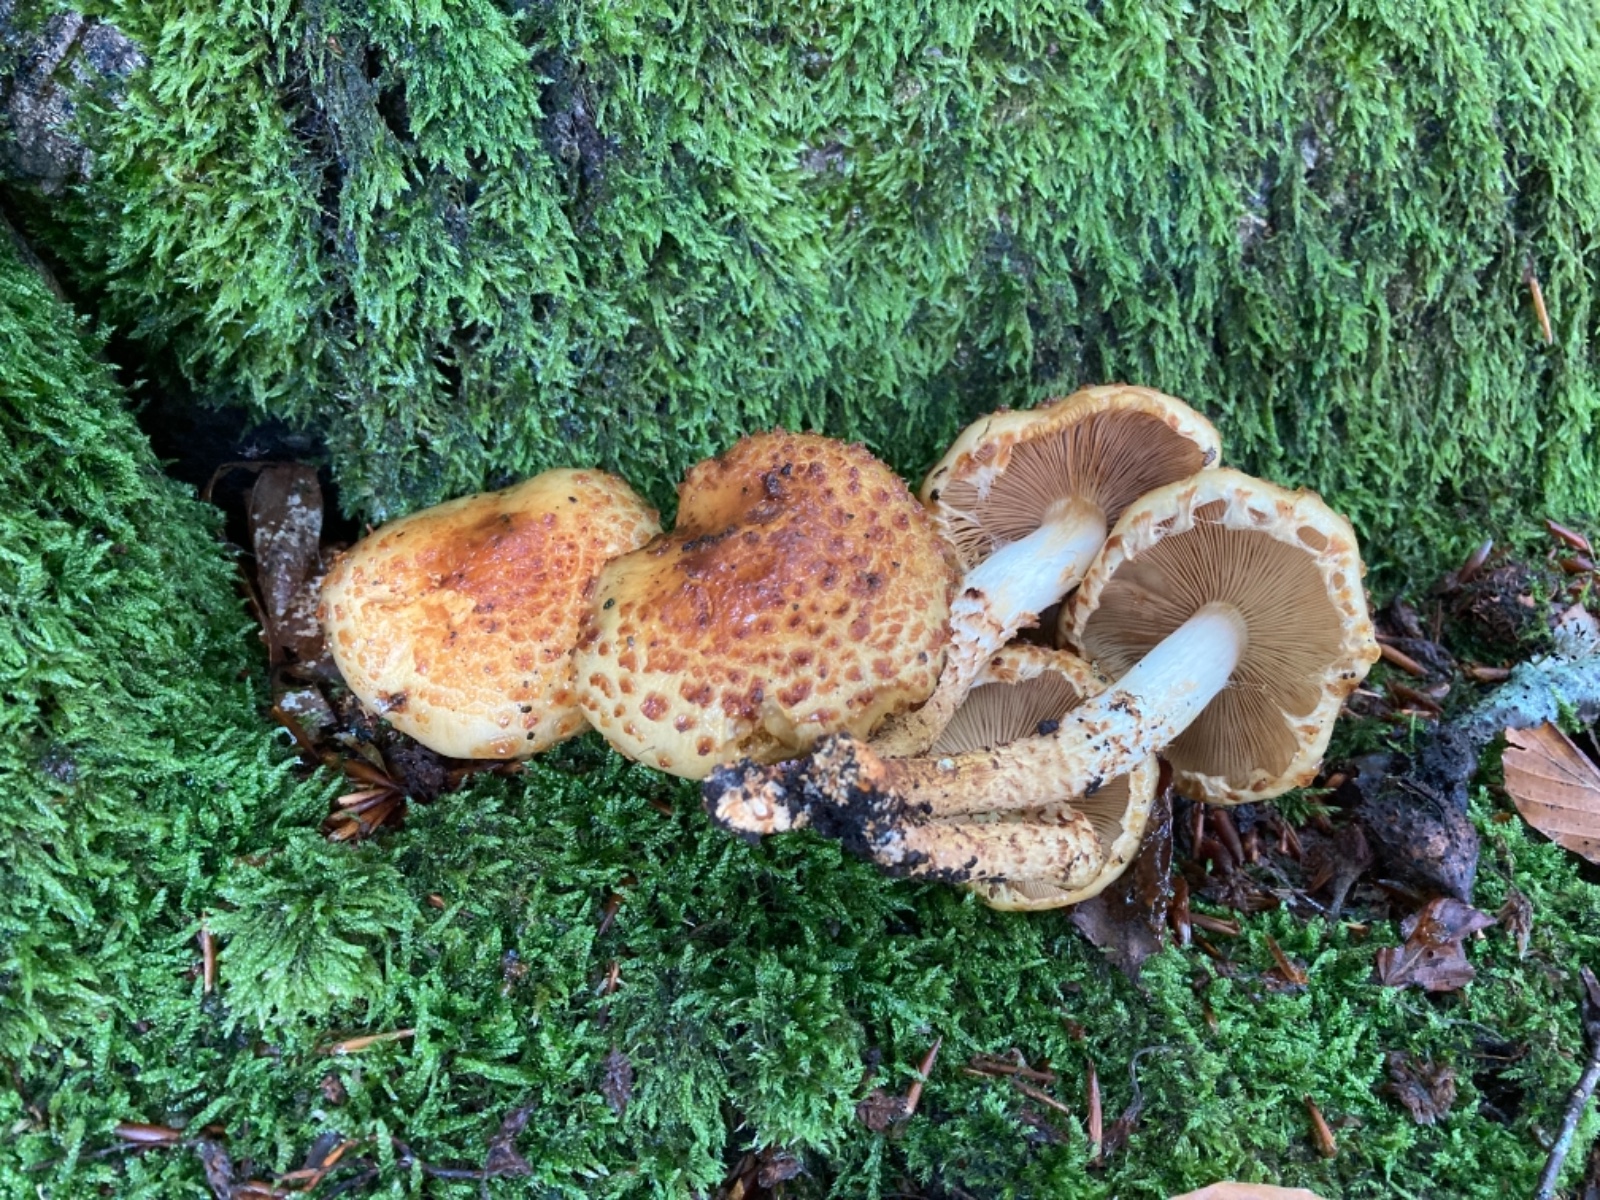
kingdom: Fungi
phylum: Basidiomycota
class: Agaricomycetes
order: Agaricales
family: Strophariaceae
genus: Pholiota
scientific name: Pholiota jahnii
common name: slimet skælhat
